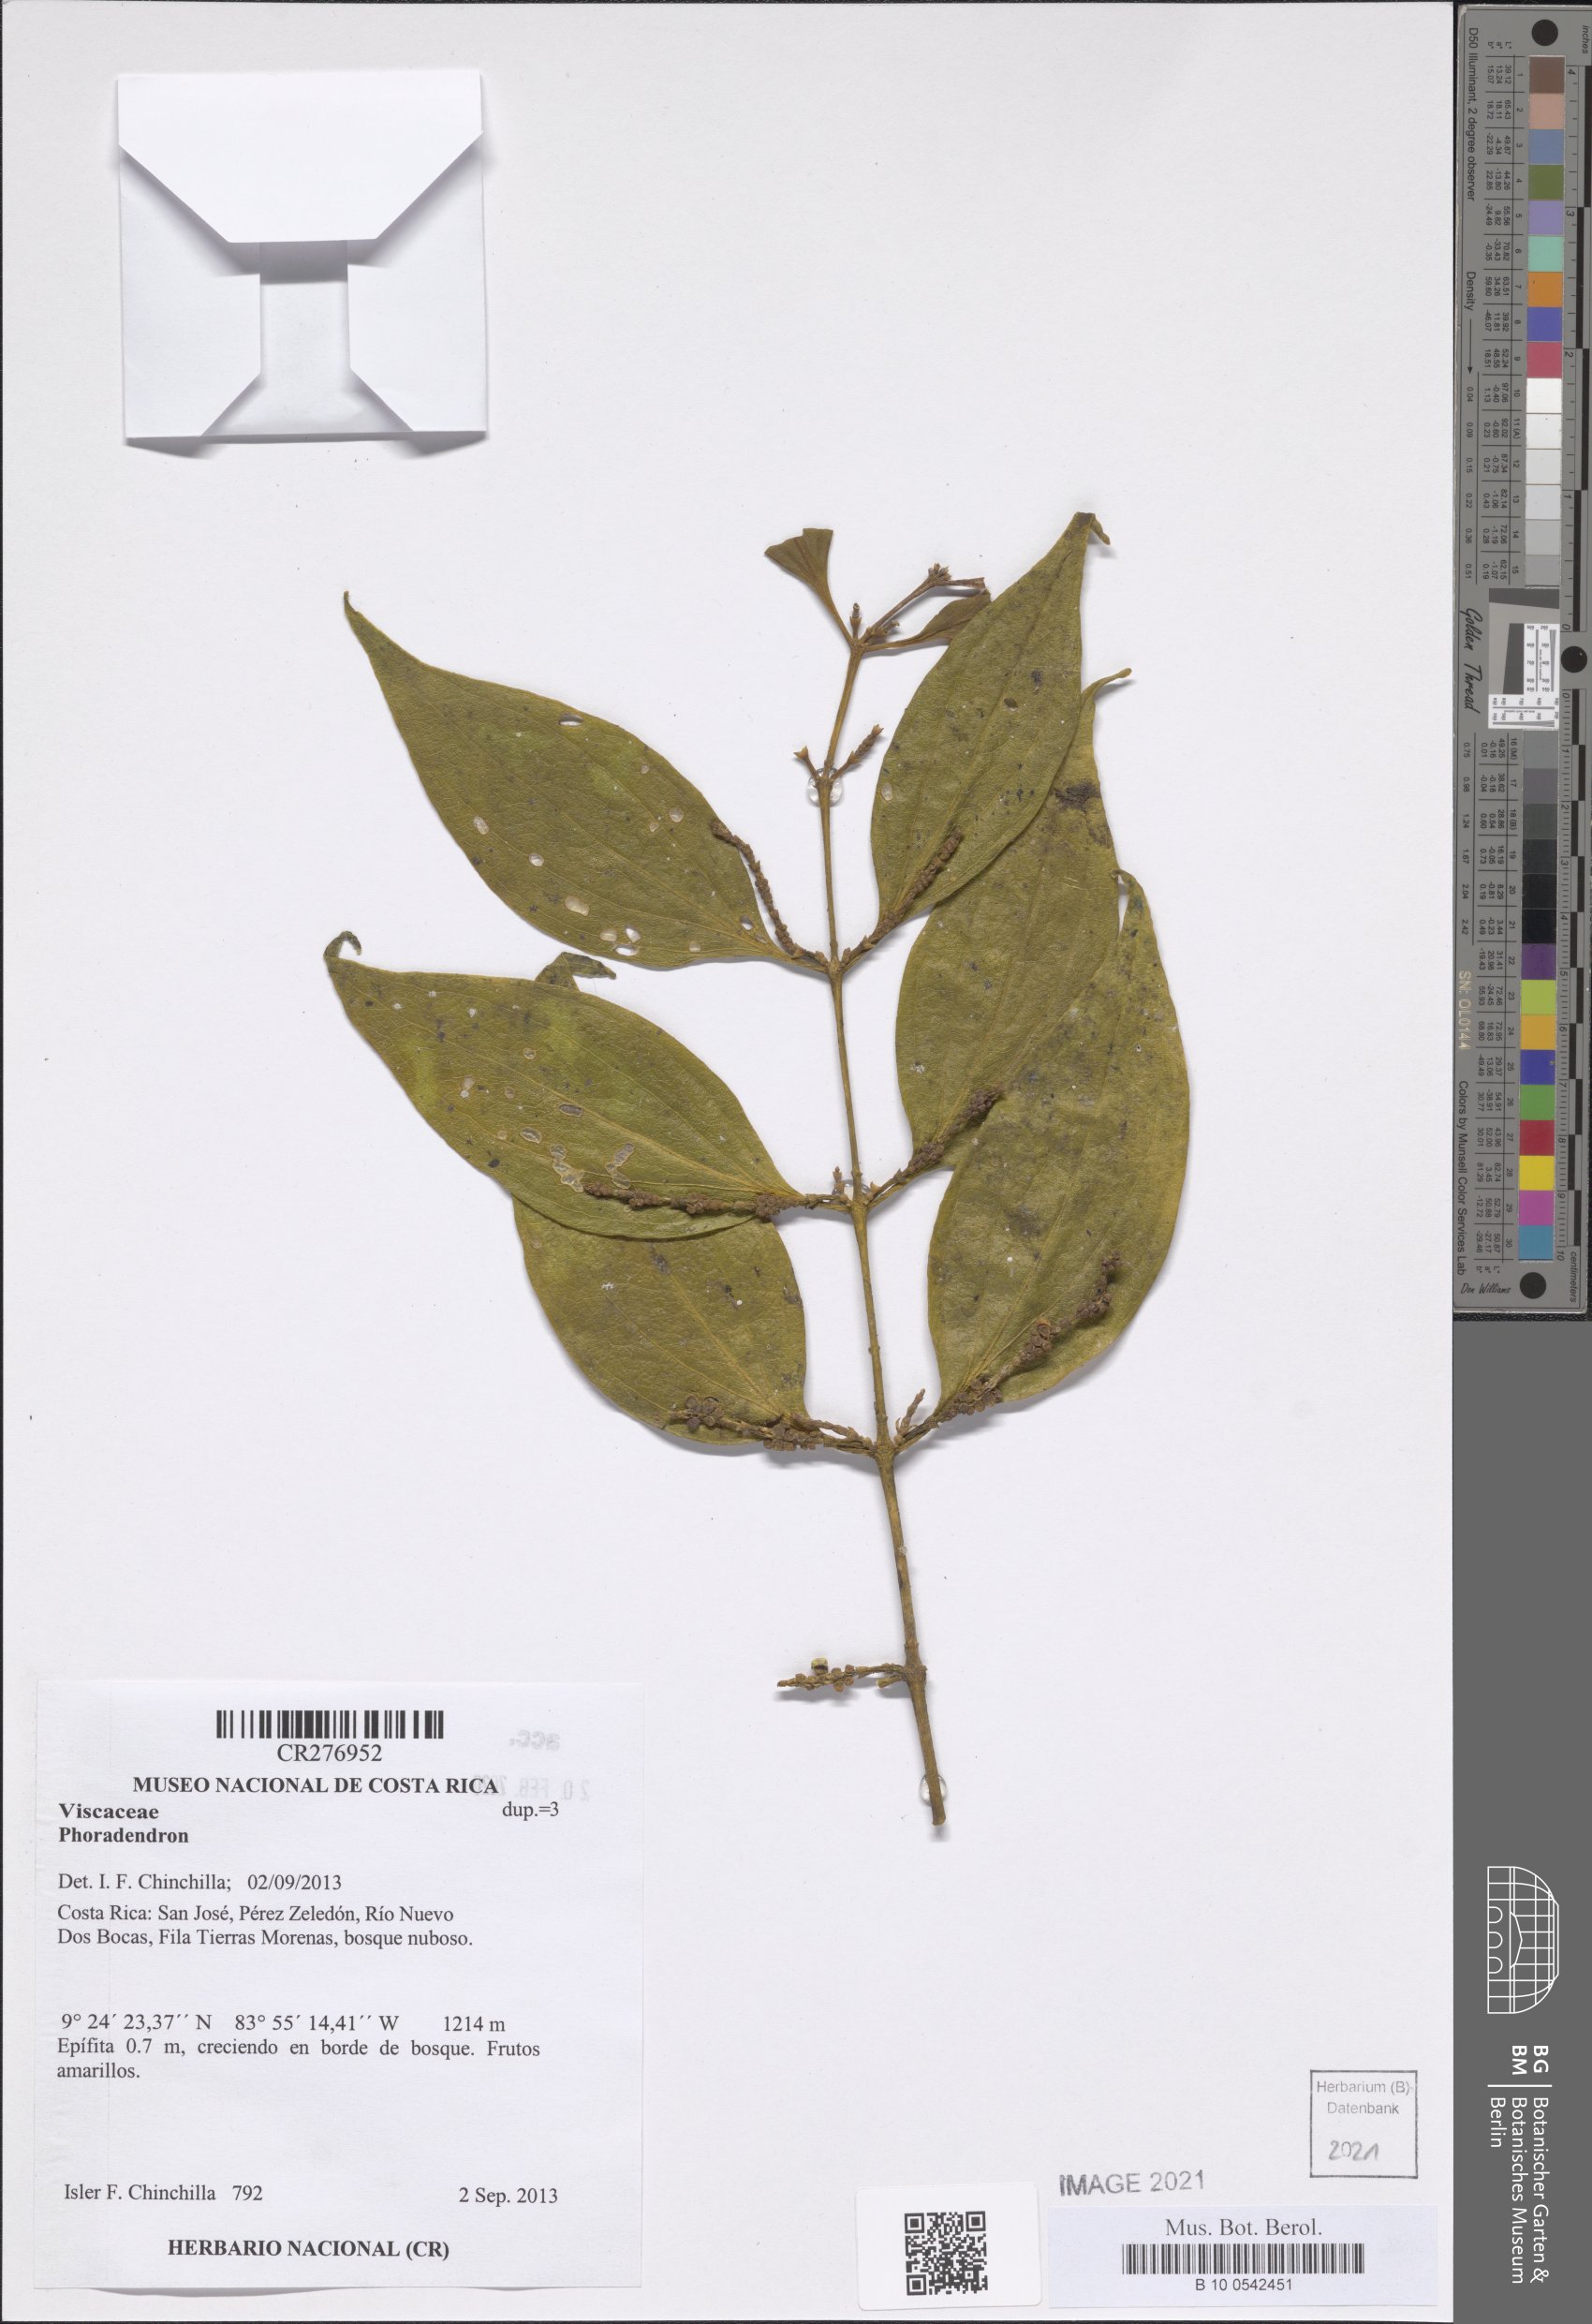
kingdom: Plantae
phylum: Tracheophyta
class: Magnoliopsida
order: Santalales
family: Viscaceae
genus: Phoradendron
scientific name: Phoradendron
